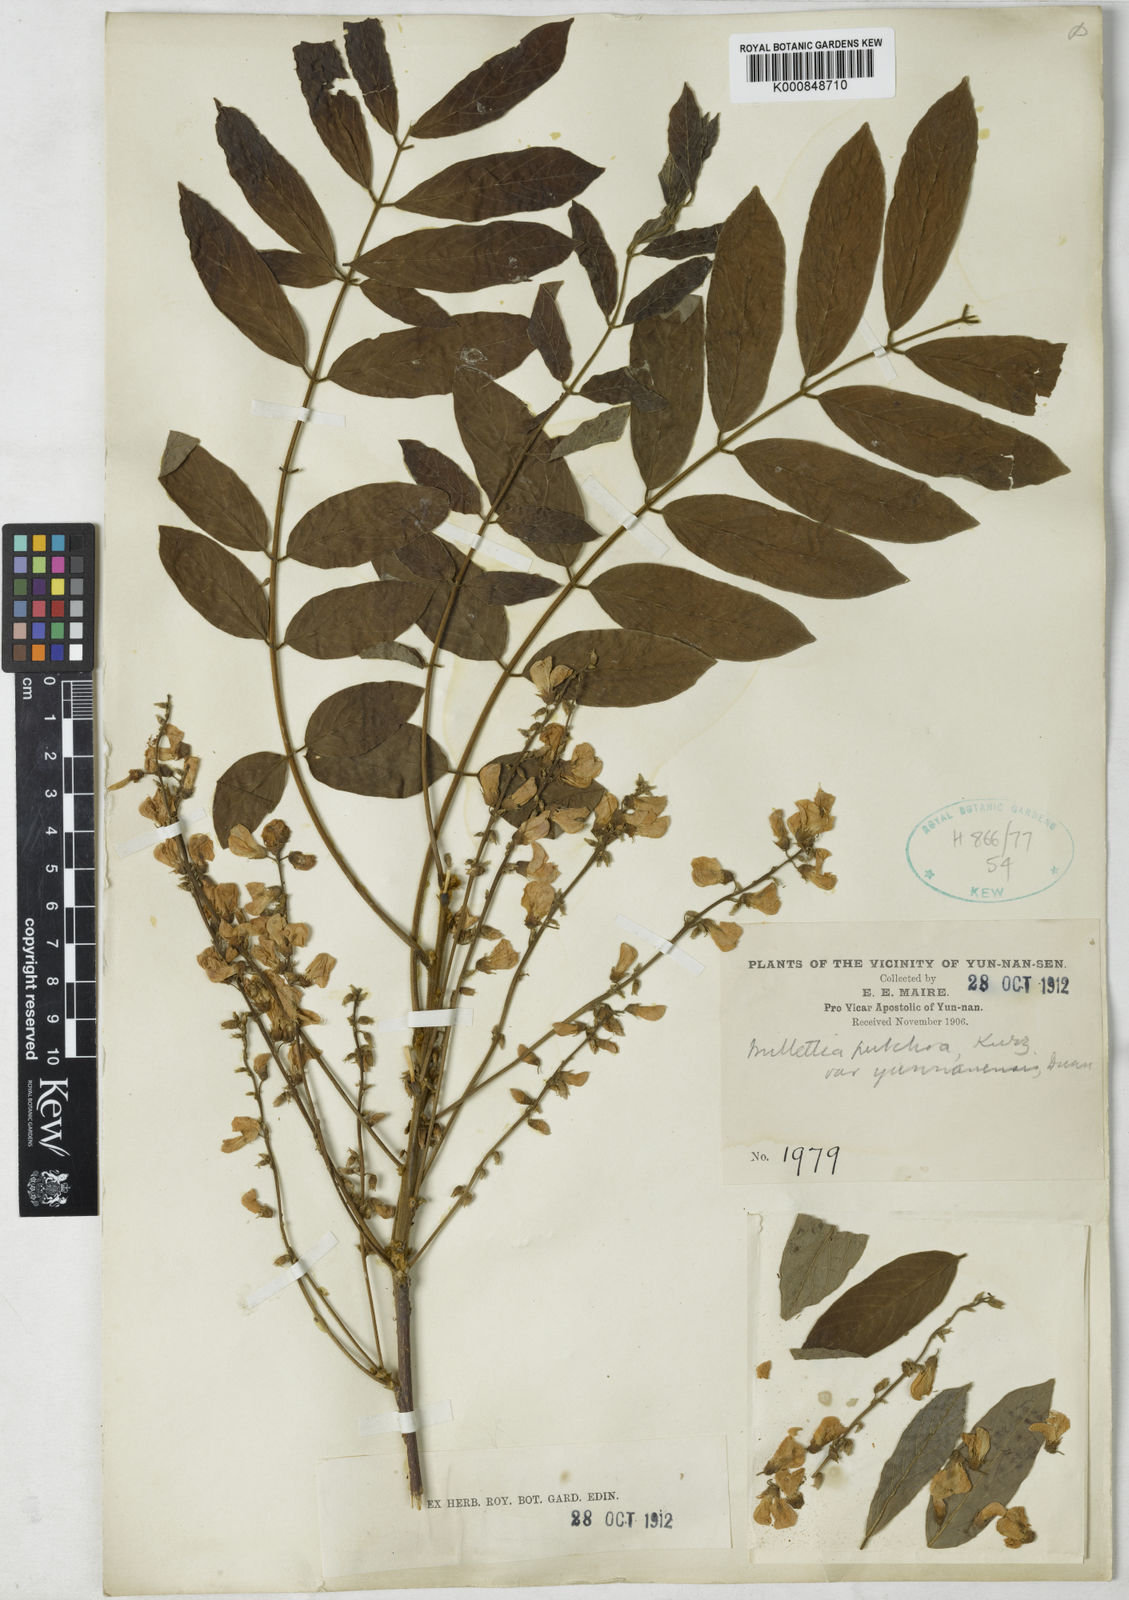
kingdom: Plantae
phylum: Tracheophyta
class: Magnoliopsida
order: Fabales
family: Fabaceae
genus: Millettia
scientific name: Millettia pulchra
